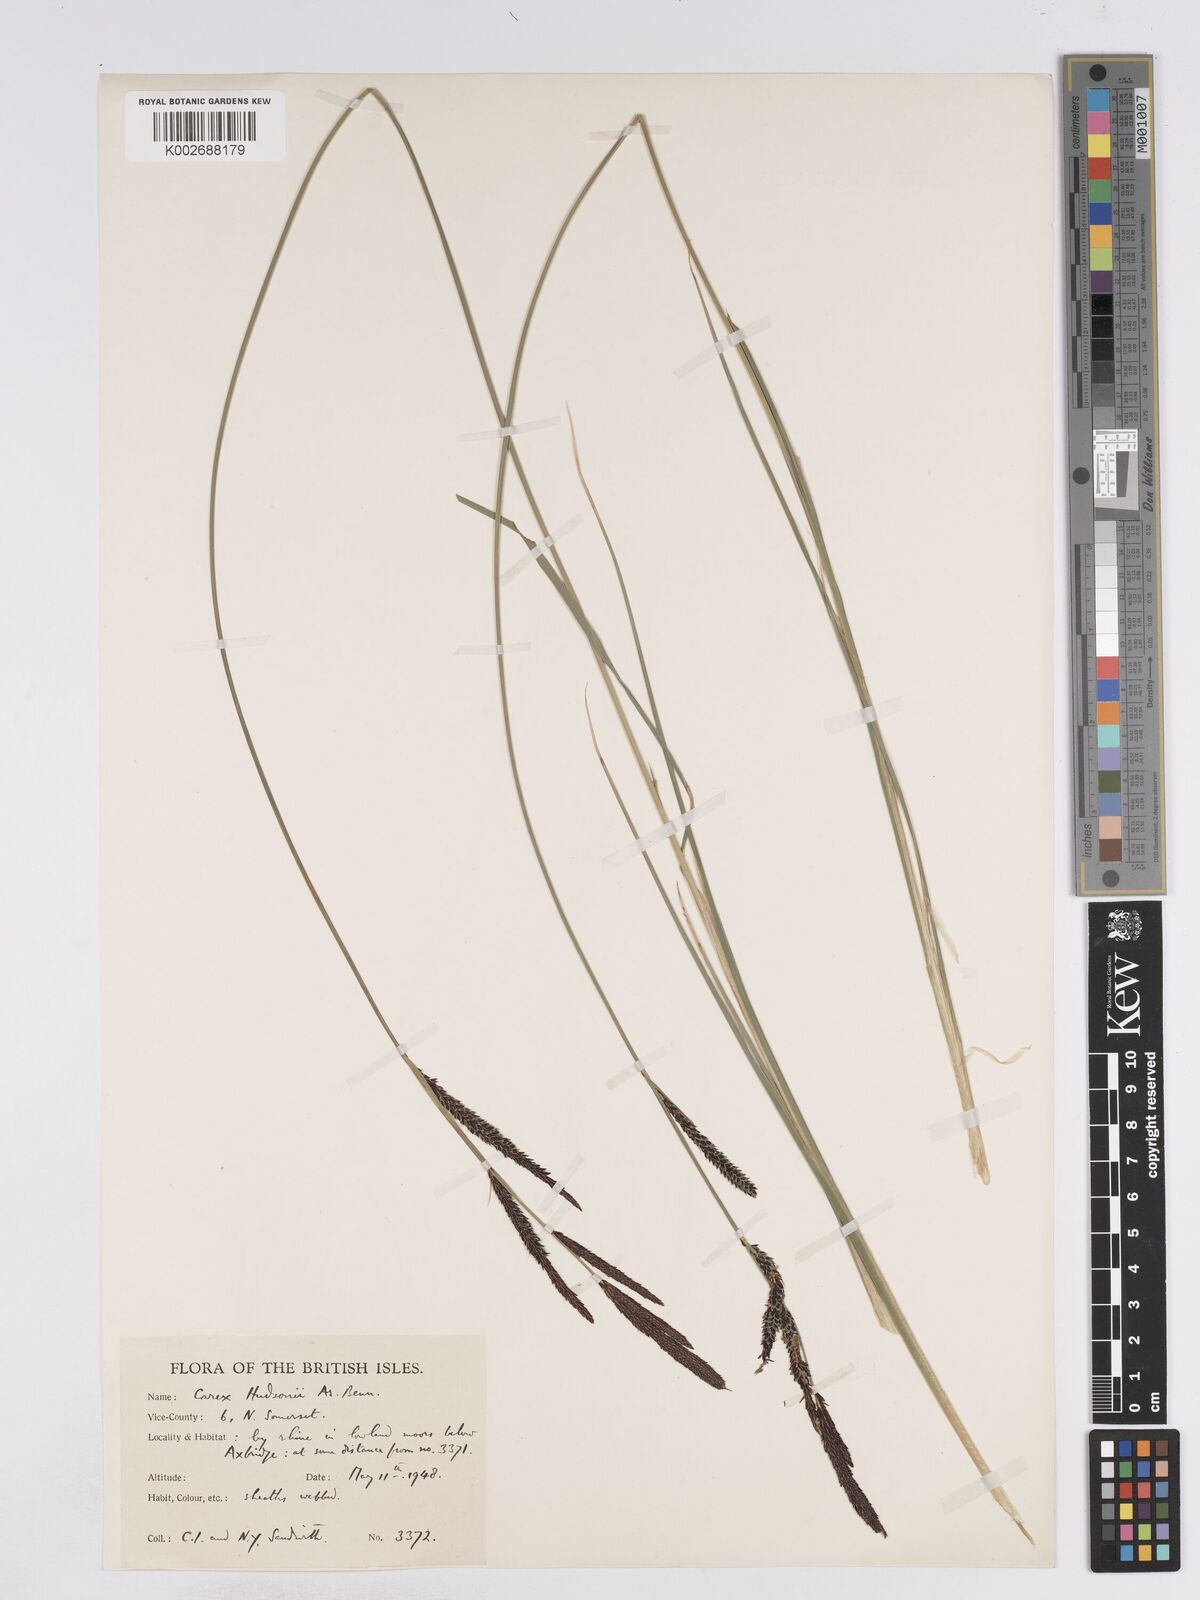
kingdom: Plantae
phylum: Tracheophyta
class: Liliopsida
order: Poales
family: Cyperaceae
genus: Carex
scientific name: Carex elata
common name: Tufted sedge
